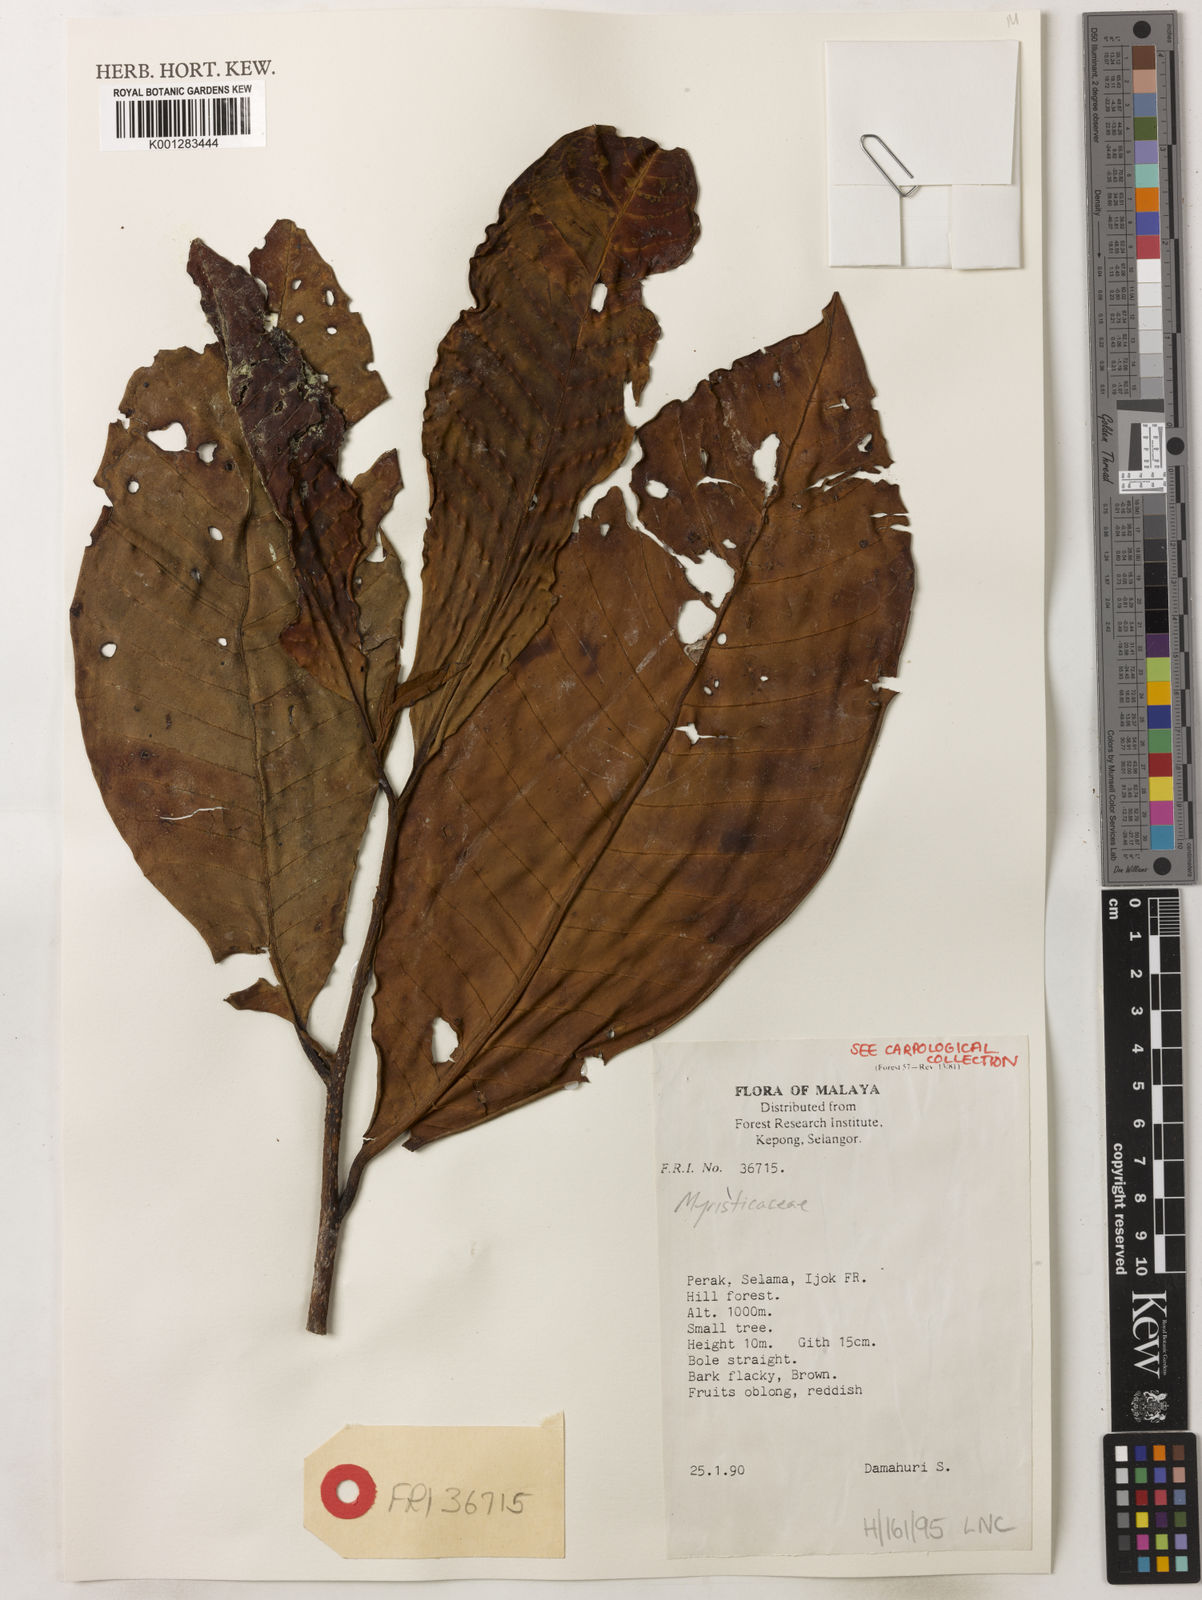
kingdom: Plantae
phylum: Tracheophyta
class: Magnoliopsida
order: Magnoliales
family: Myristicaceae
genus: Myristica
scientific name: Myristica
